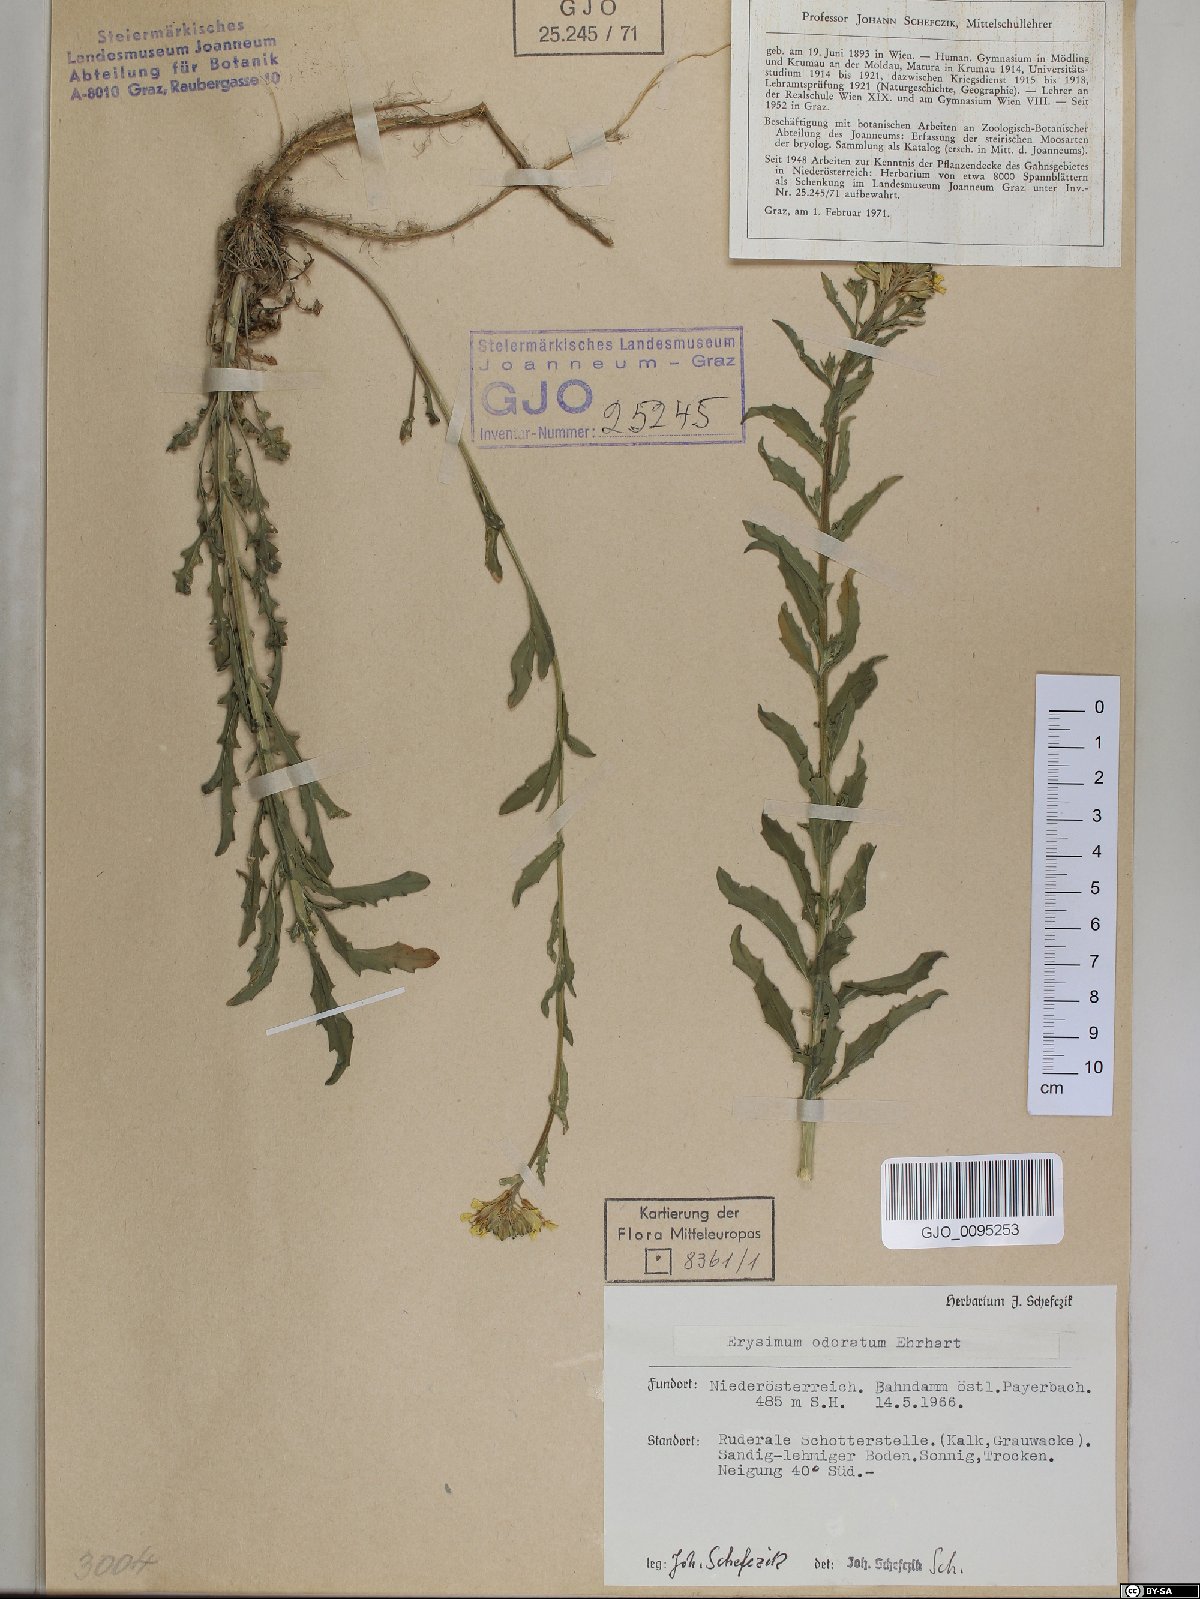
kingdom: Plantae
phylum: Tracheophyta
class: Magnoliopsida
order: Brassicales
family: Brassicaceae
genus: Erysimum
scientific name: Erysimum odoratum
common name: Smelly wallflower
